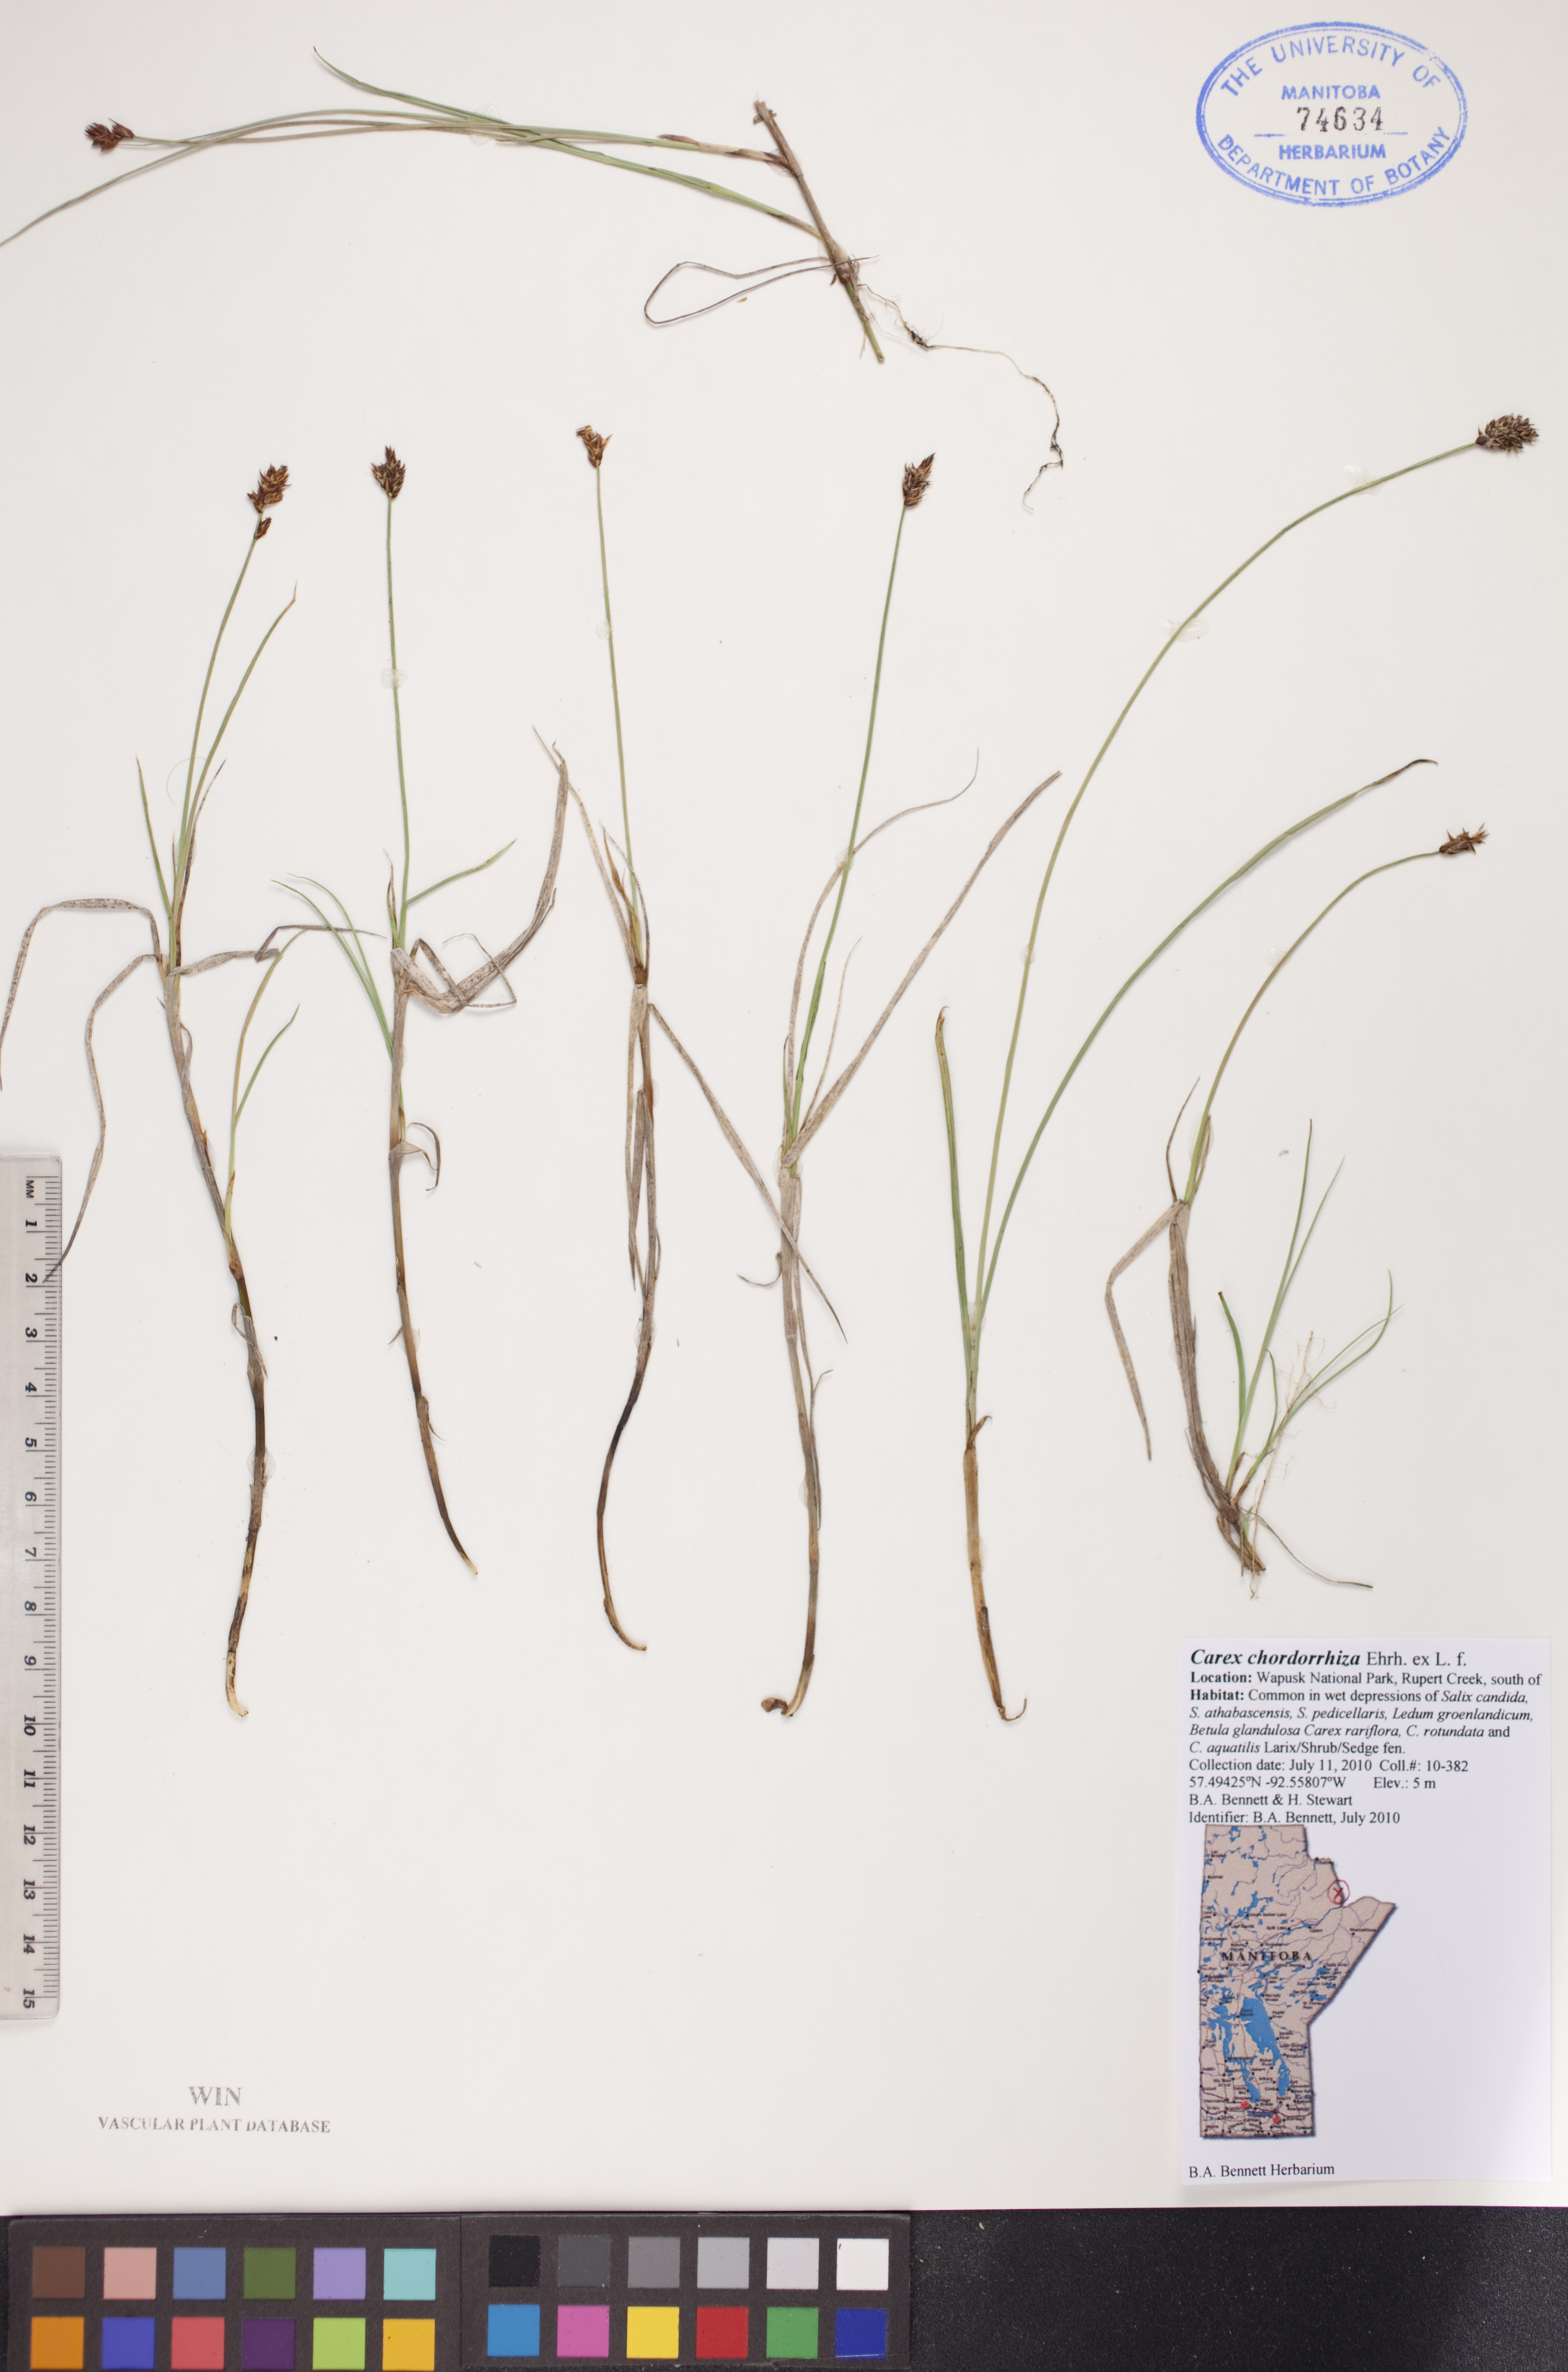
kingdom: Plantae
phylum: Tracheophyta
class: Liliopsida
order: Poales
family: Cyperaceae
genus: Carex
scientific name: Carex chordorrhiza
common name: String sedge
